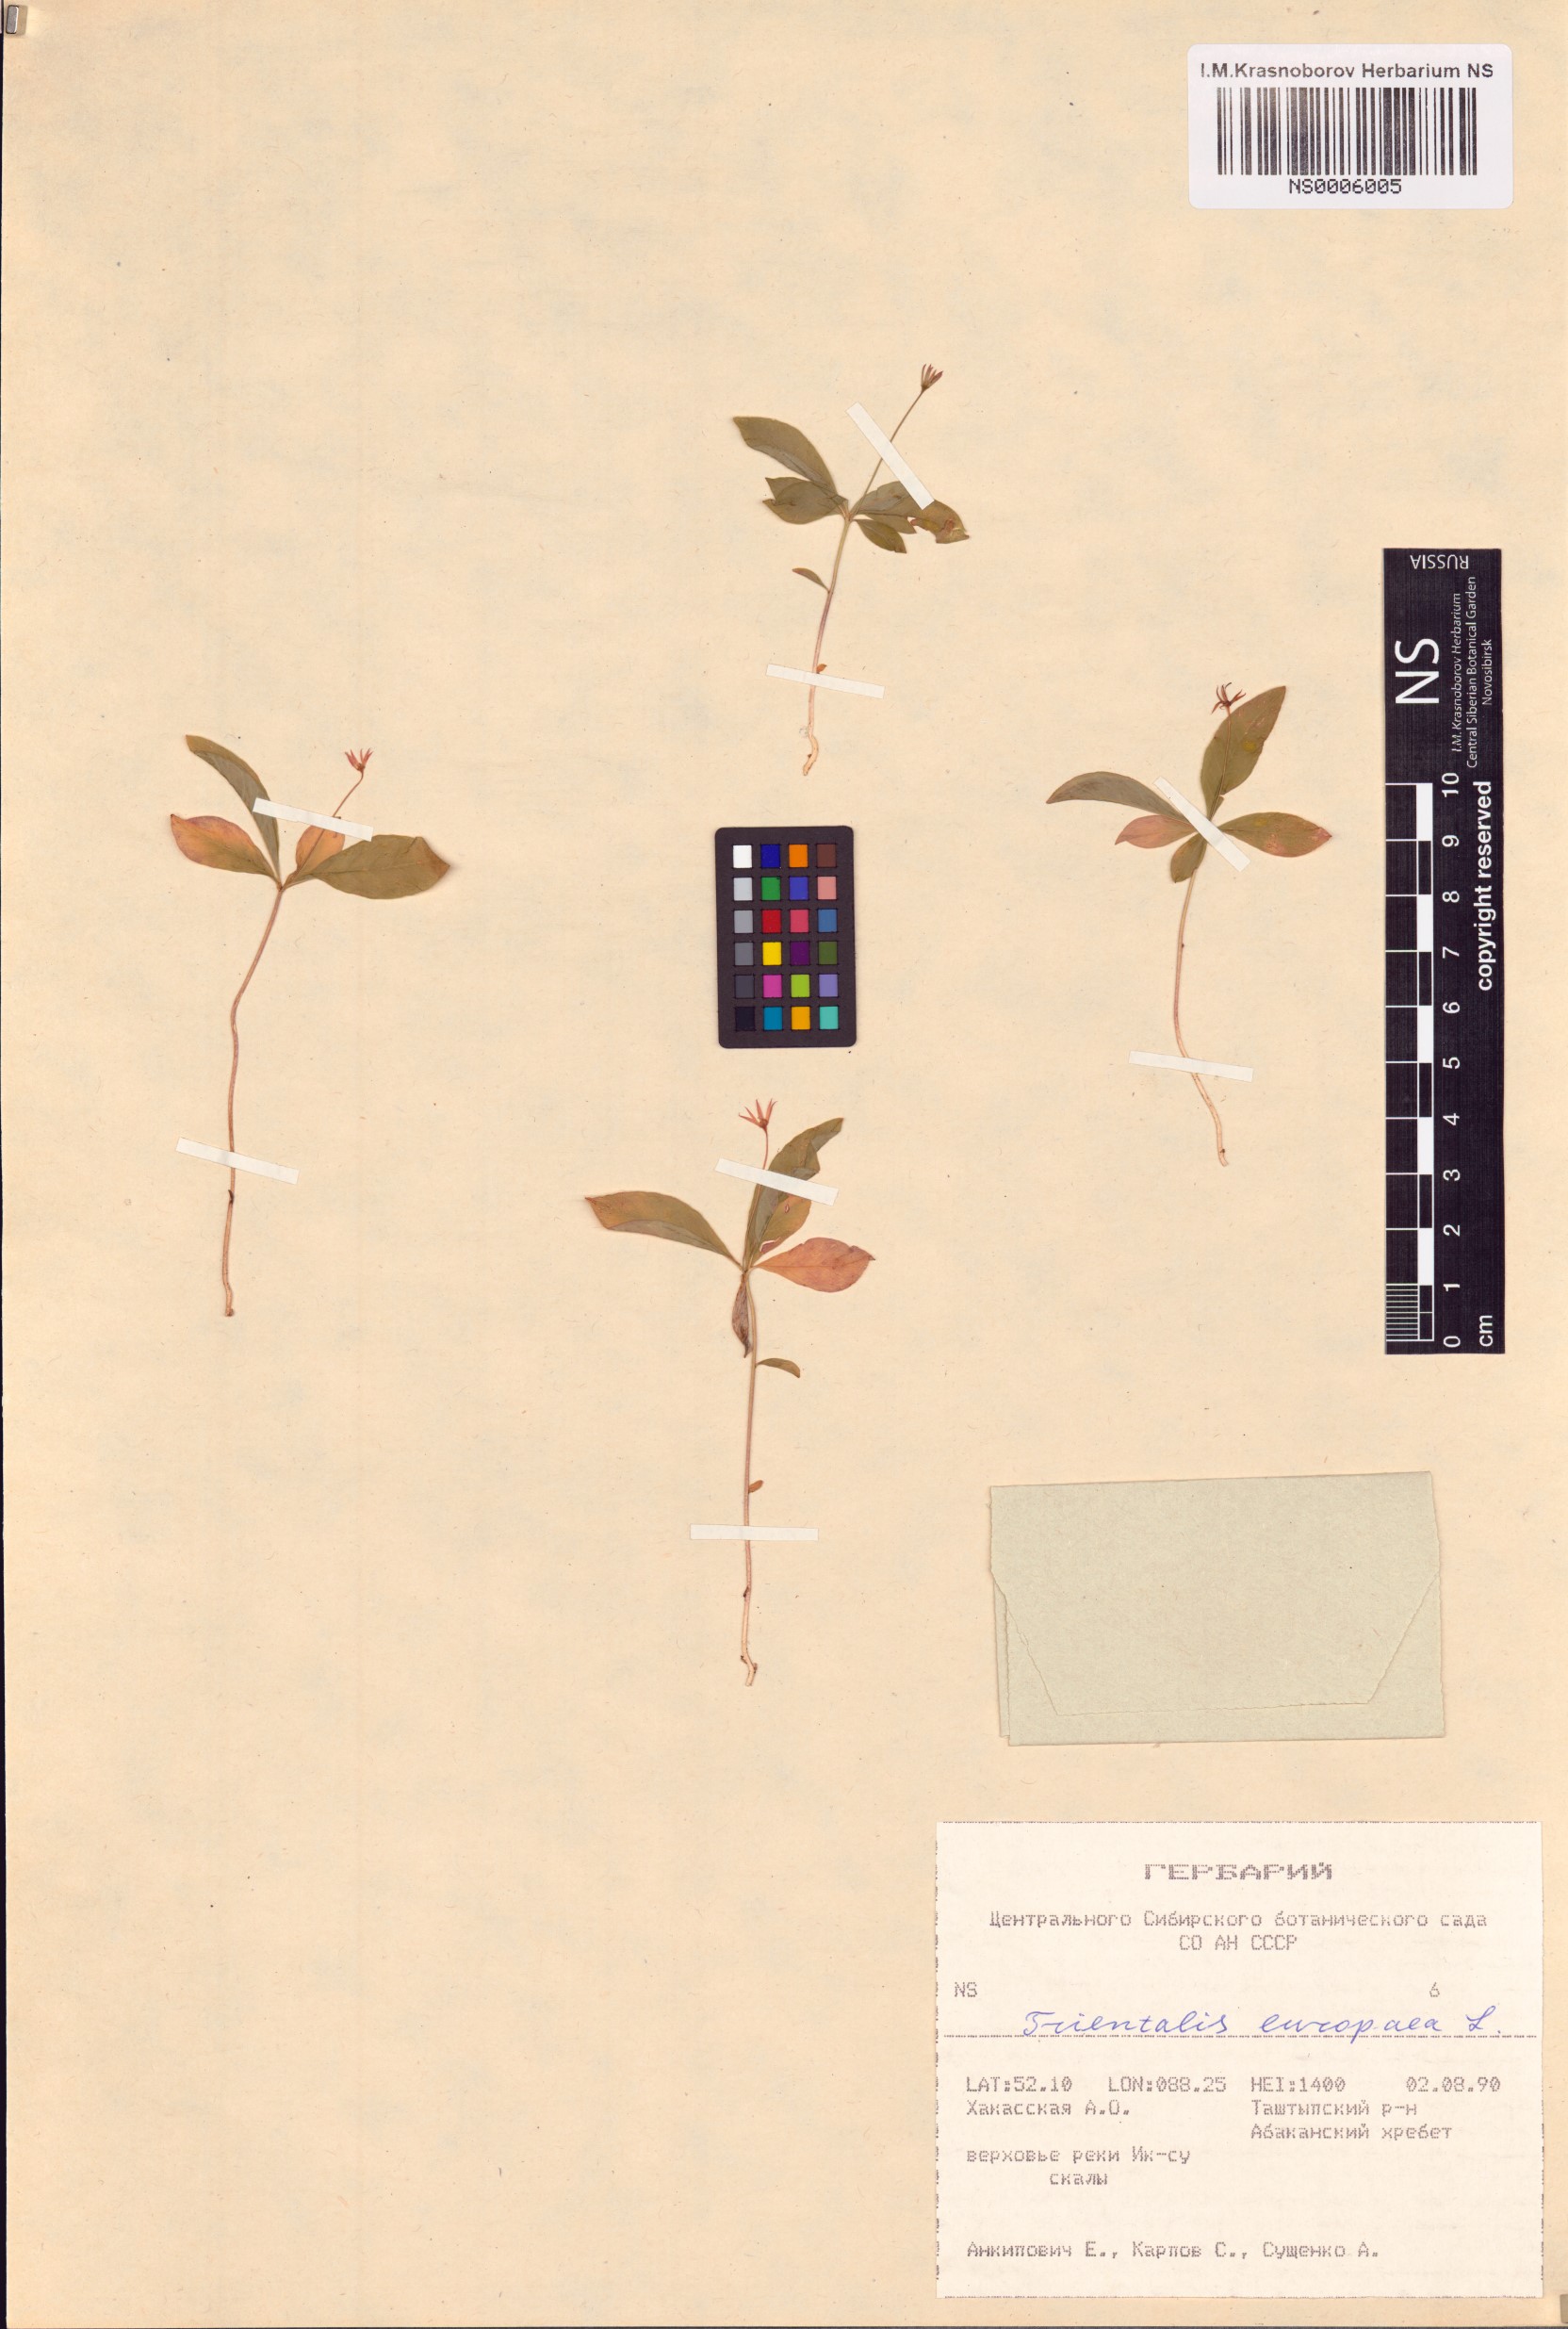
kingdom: Plantae
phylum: Tracheophyta
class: Magnoliopsida
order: Ericales
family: Primulaceae
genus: Lysimachia
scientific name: Lysimachia europaea
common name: Arctic starflower
